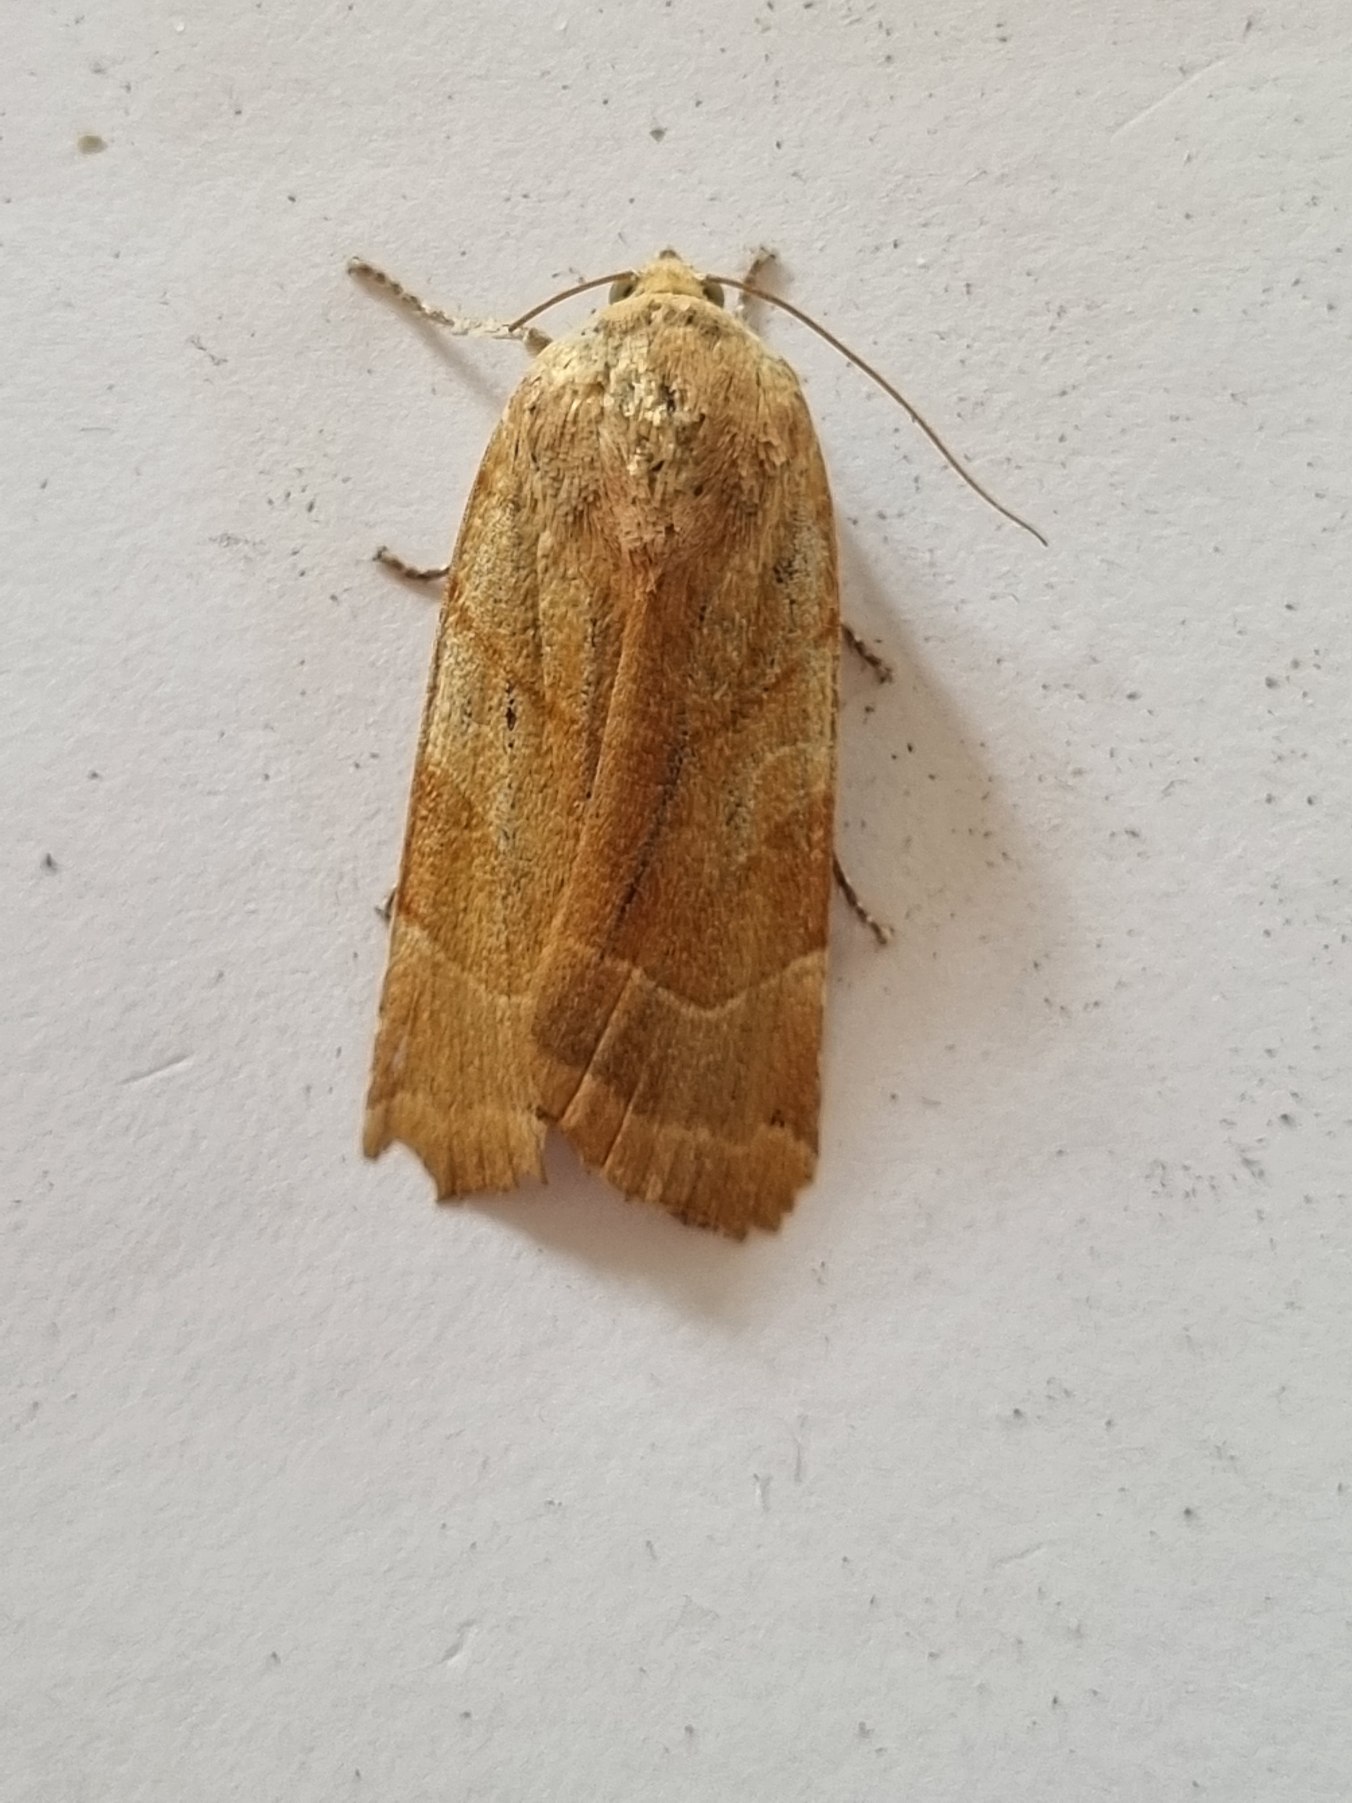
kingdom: Animalia
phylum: Arthropoda
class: Insecta
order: Lepidoptera
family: Noctuidae
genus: Noctua
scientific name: Noctua fimbriata
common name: Gul båndugle
